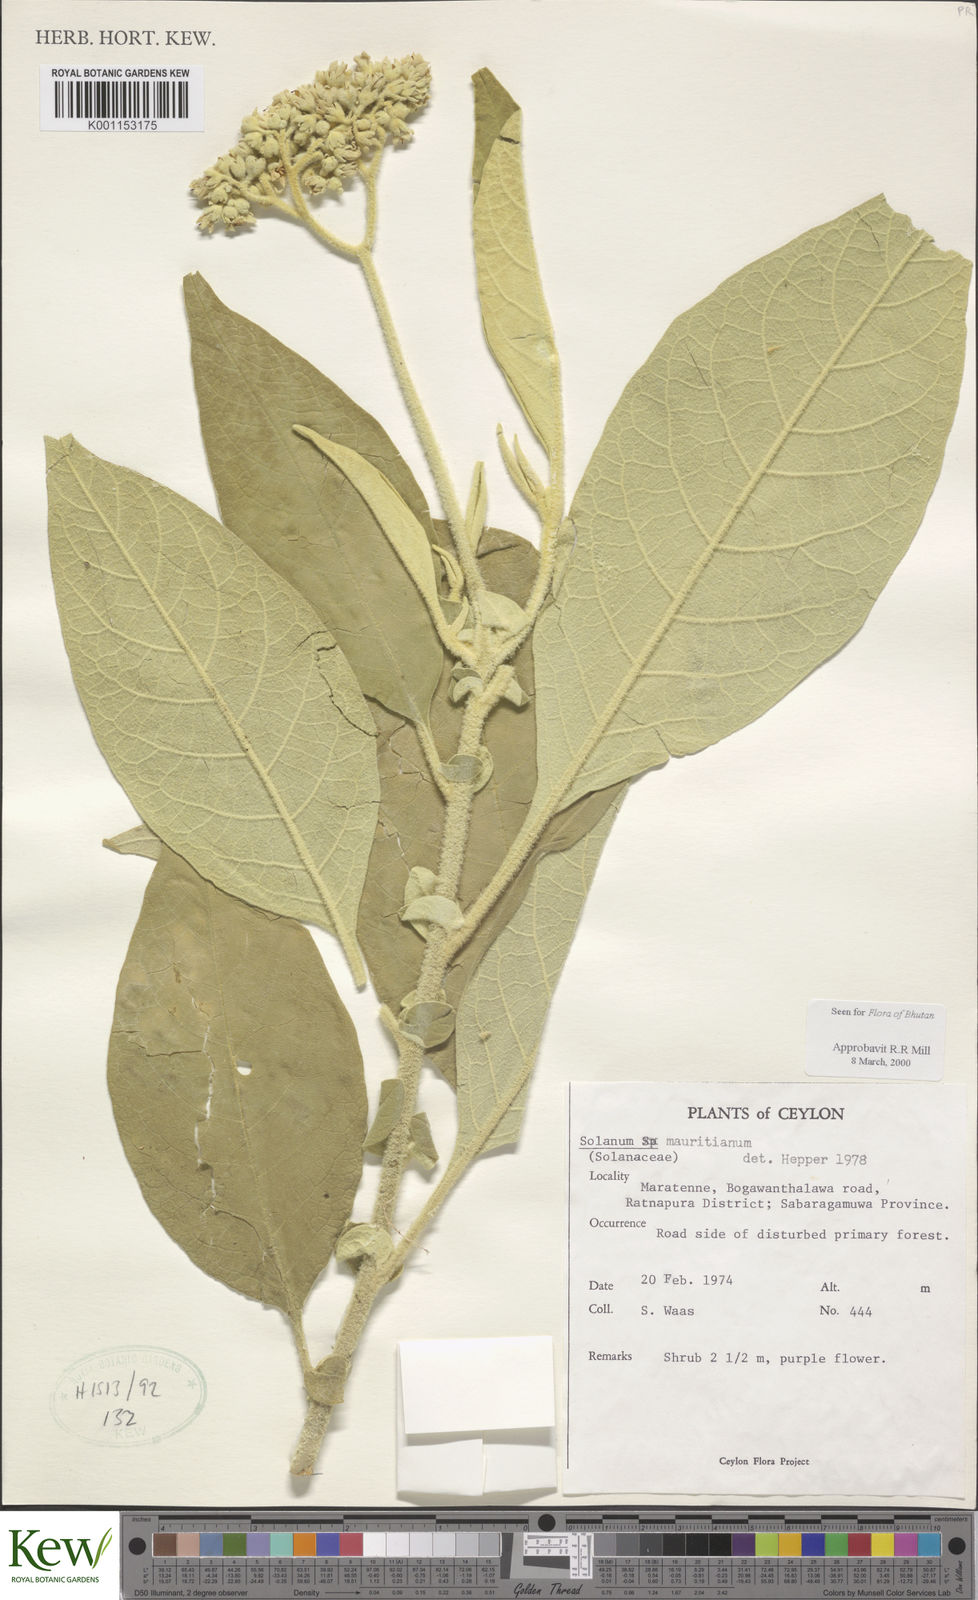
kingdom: Plantae
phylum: Tracheophyta
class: Magnoliopsida
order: Solanales
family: Solanaceae
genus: Solanum
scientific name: Solanum mauritianum
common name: Earleaf nightshade
